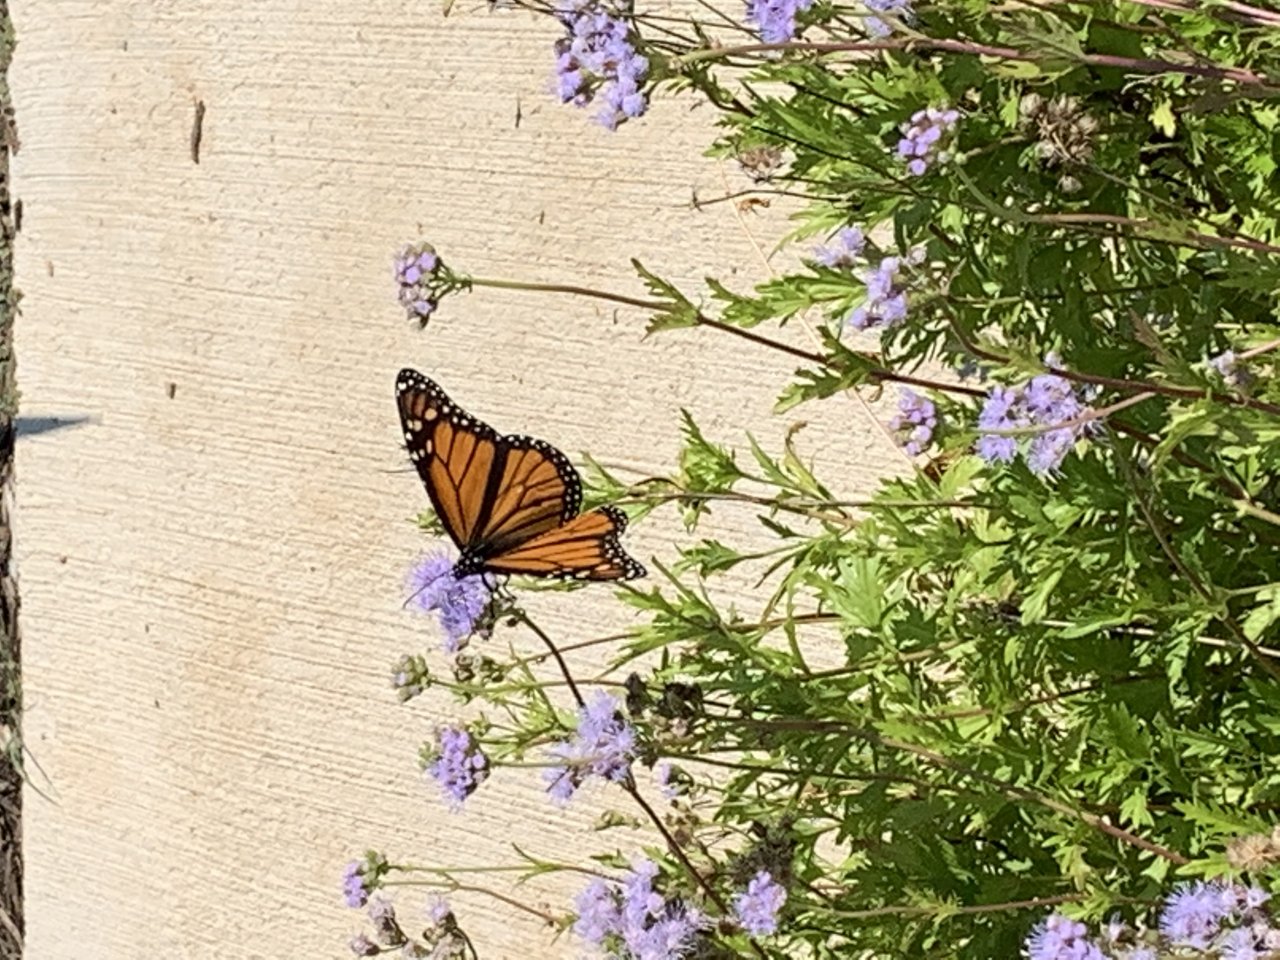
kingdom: Animalia
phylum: Arthropoda
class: Insecta
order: Lepidoptera
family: Nymphalidae
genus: Danaus
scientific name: Danaus plexippus
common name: Monarch
